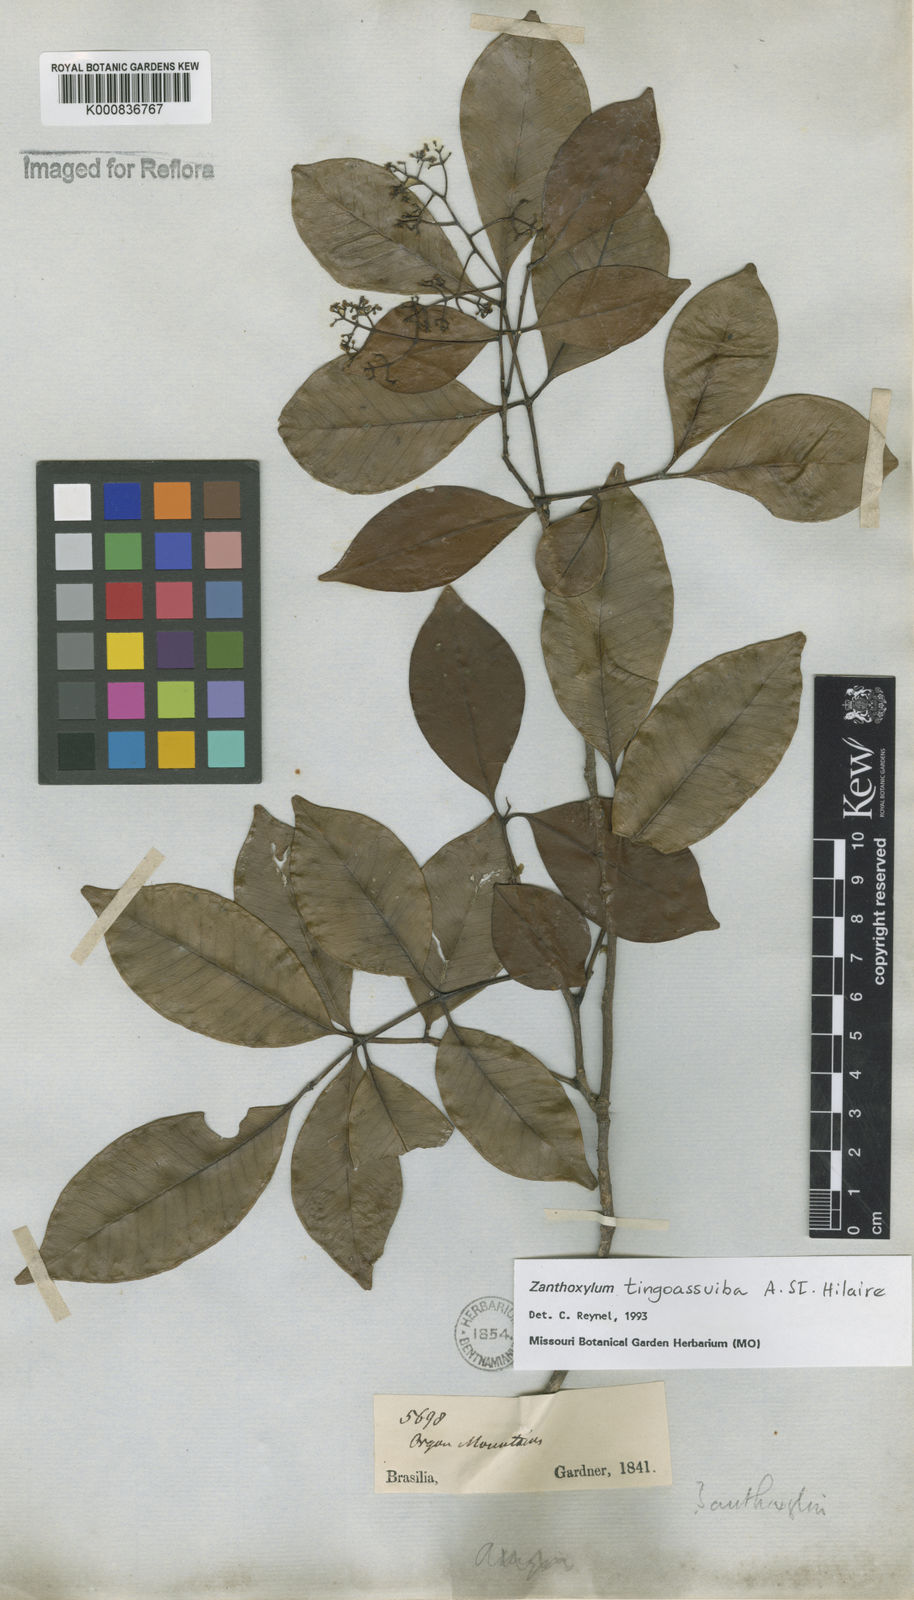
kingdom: Plantae
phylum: Tracheophyta
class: Magnoliopsida
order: Sapindales
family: Rutaceae
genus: Zanthoxylum
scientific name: Zanthoxylum tingoassuiba
